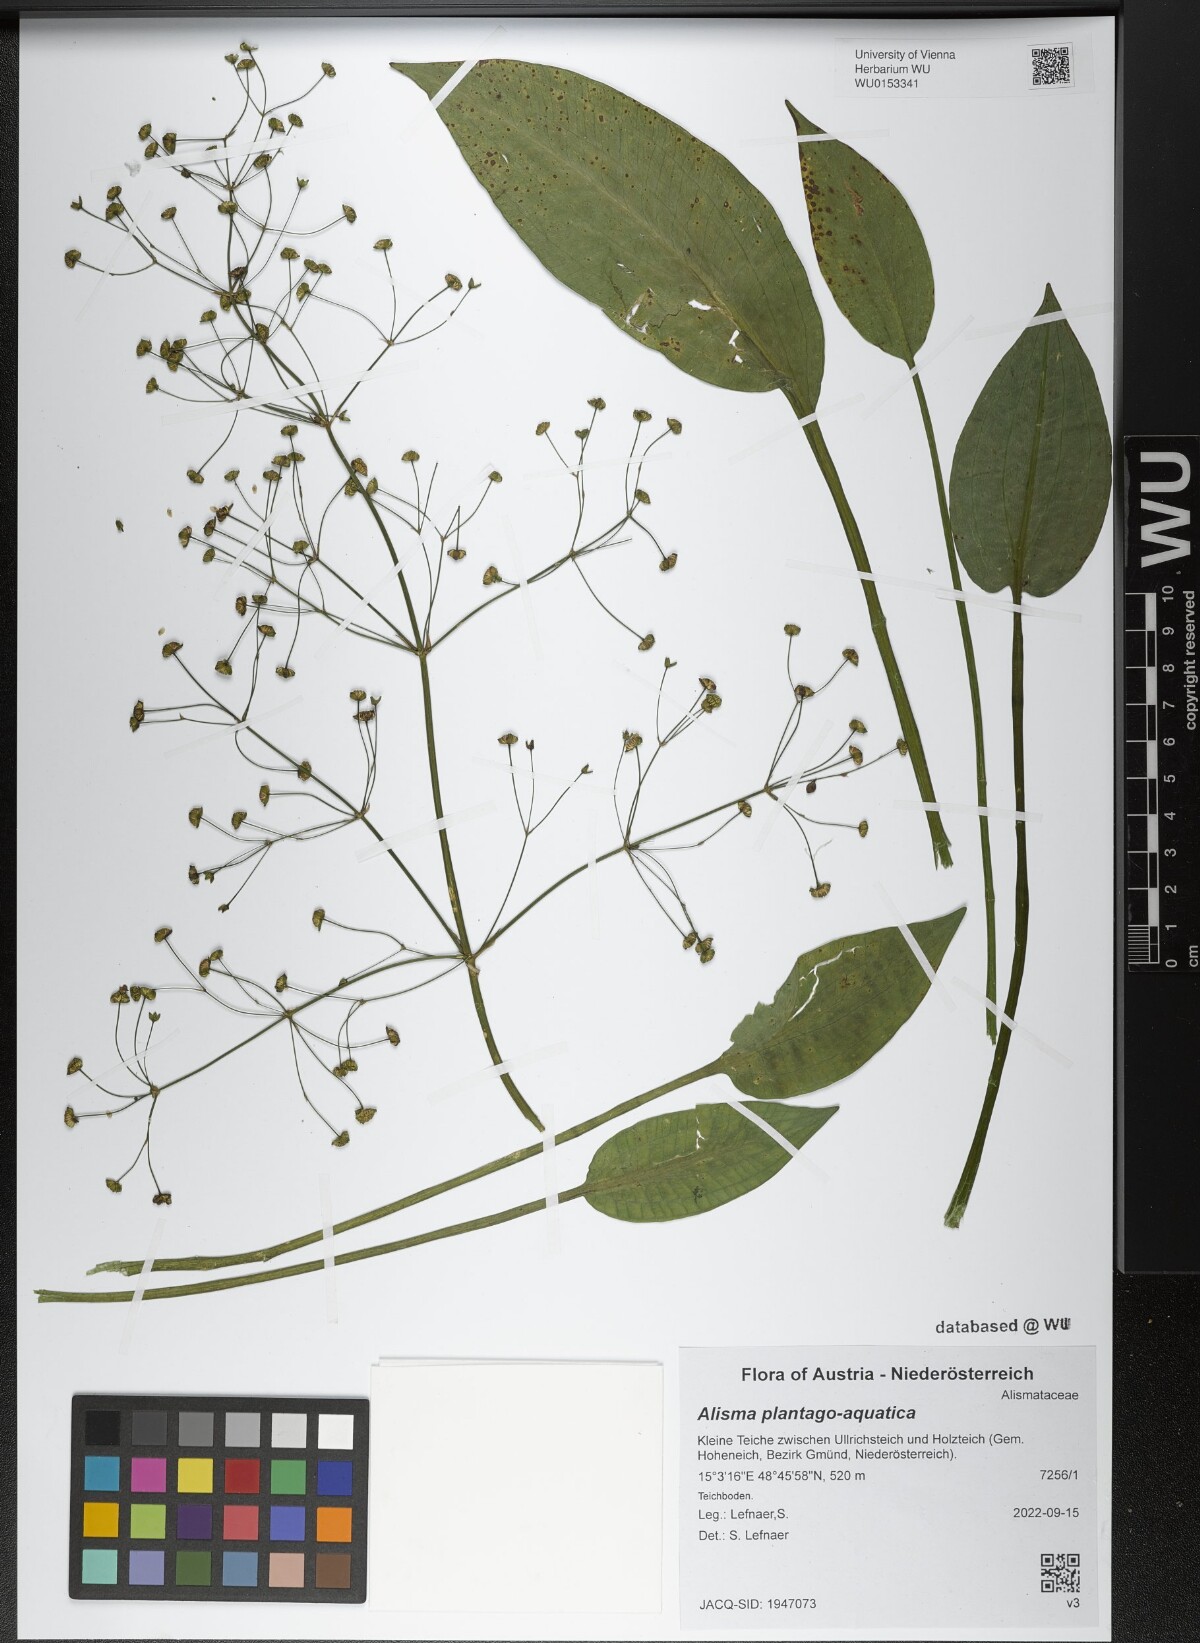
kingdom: Plantae
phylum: Tracheophyta
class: Liliopsida
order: Alismatales
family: Alismataceae
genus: Alisma
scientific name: Alisma plantago-aquatica
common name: Water-plantain
